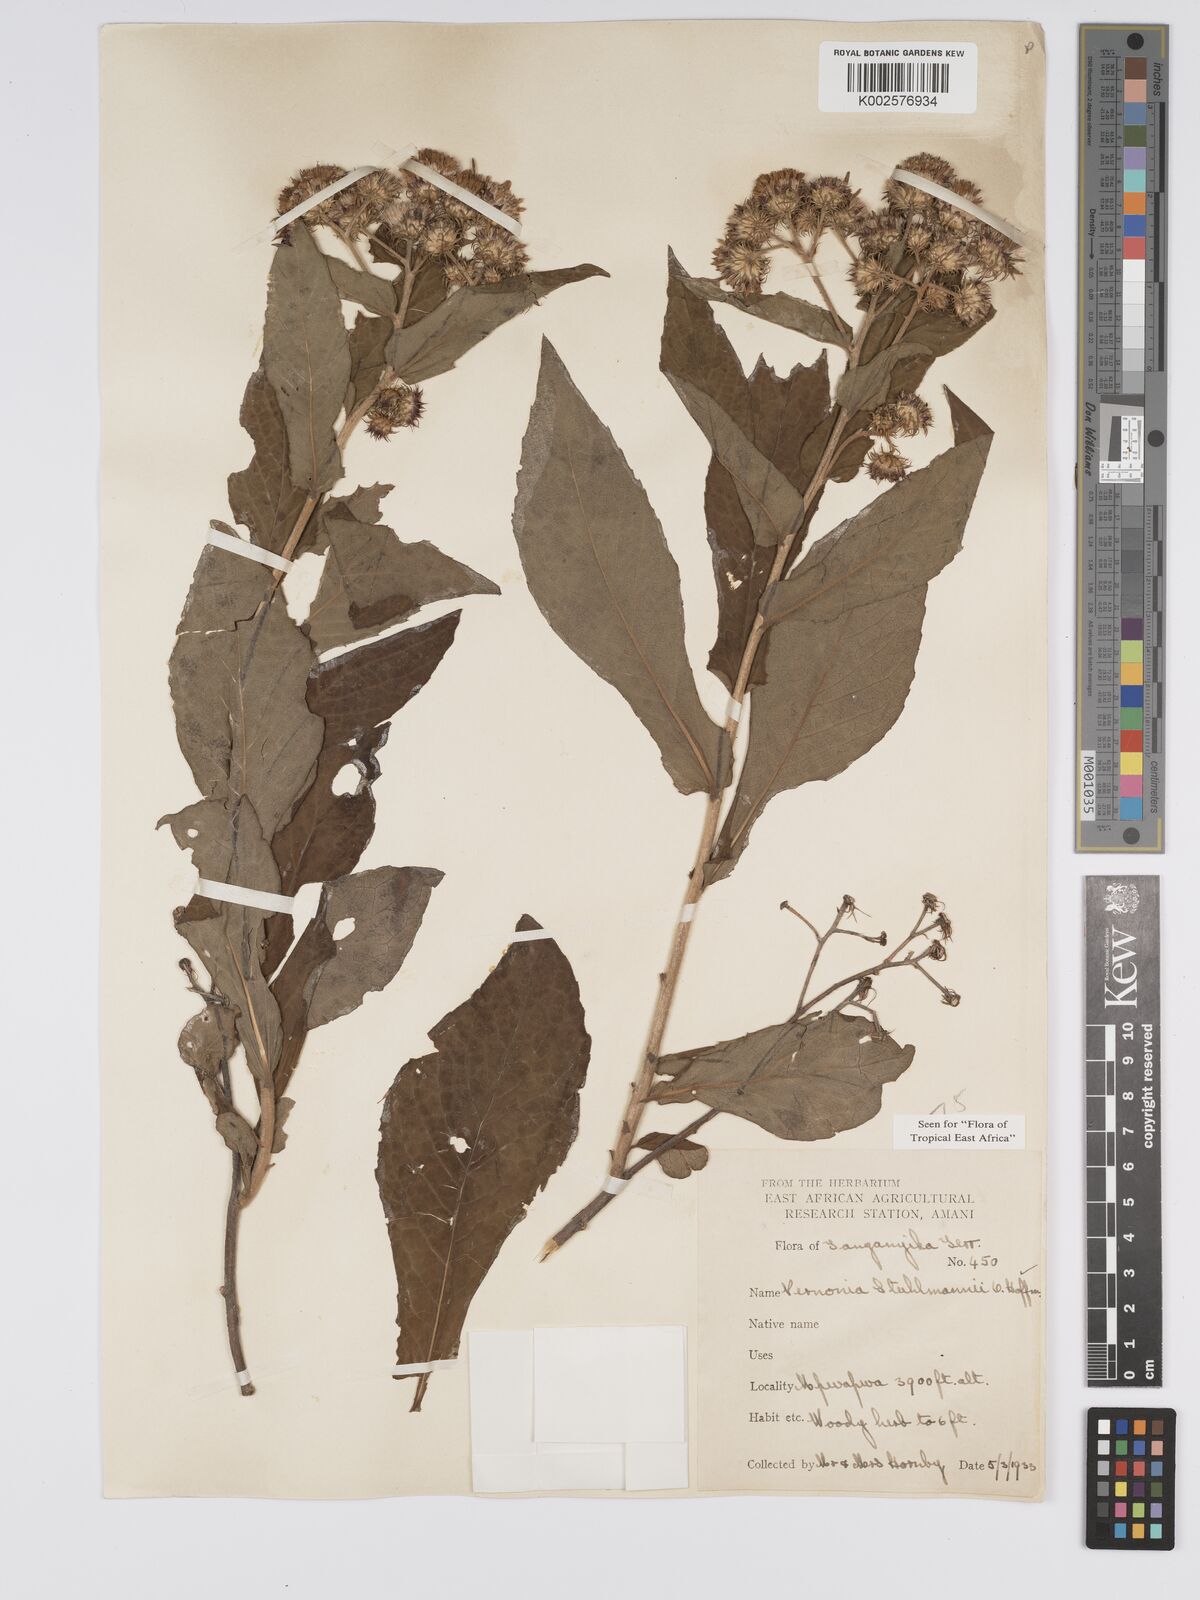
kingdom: Plantae
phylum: Tracheophyta
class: Magnoliopsida
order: Asterales
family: Asteraceae
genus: Vernonia
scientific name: Vernonia stuhlmannii
